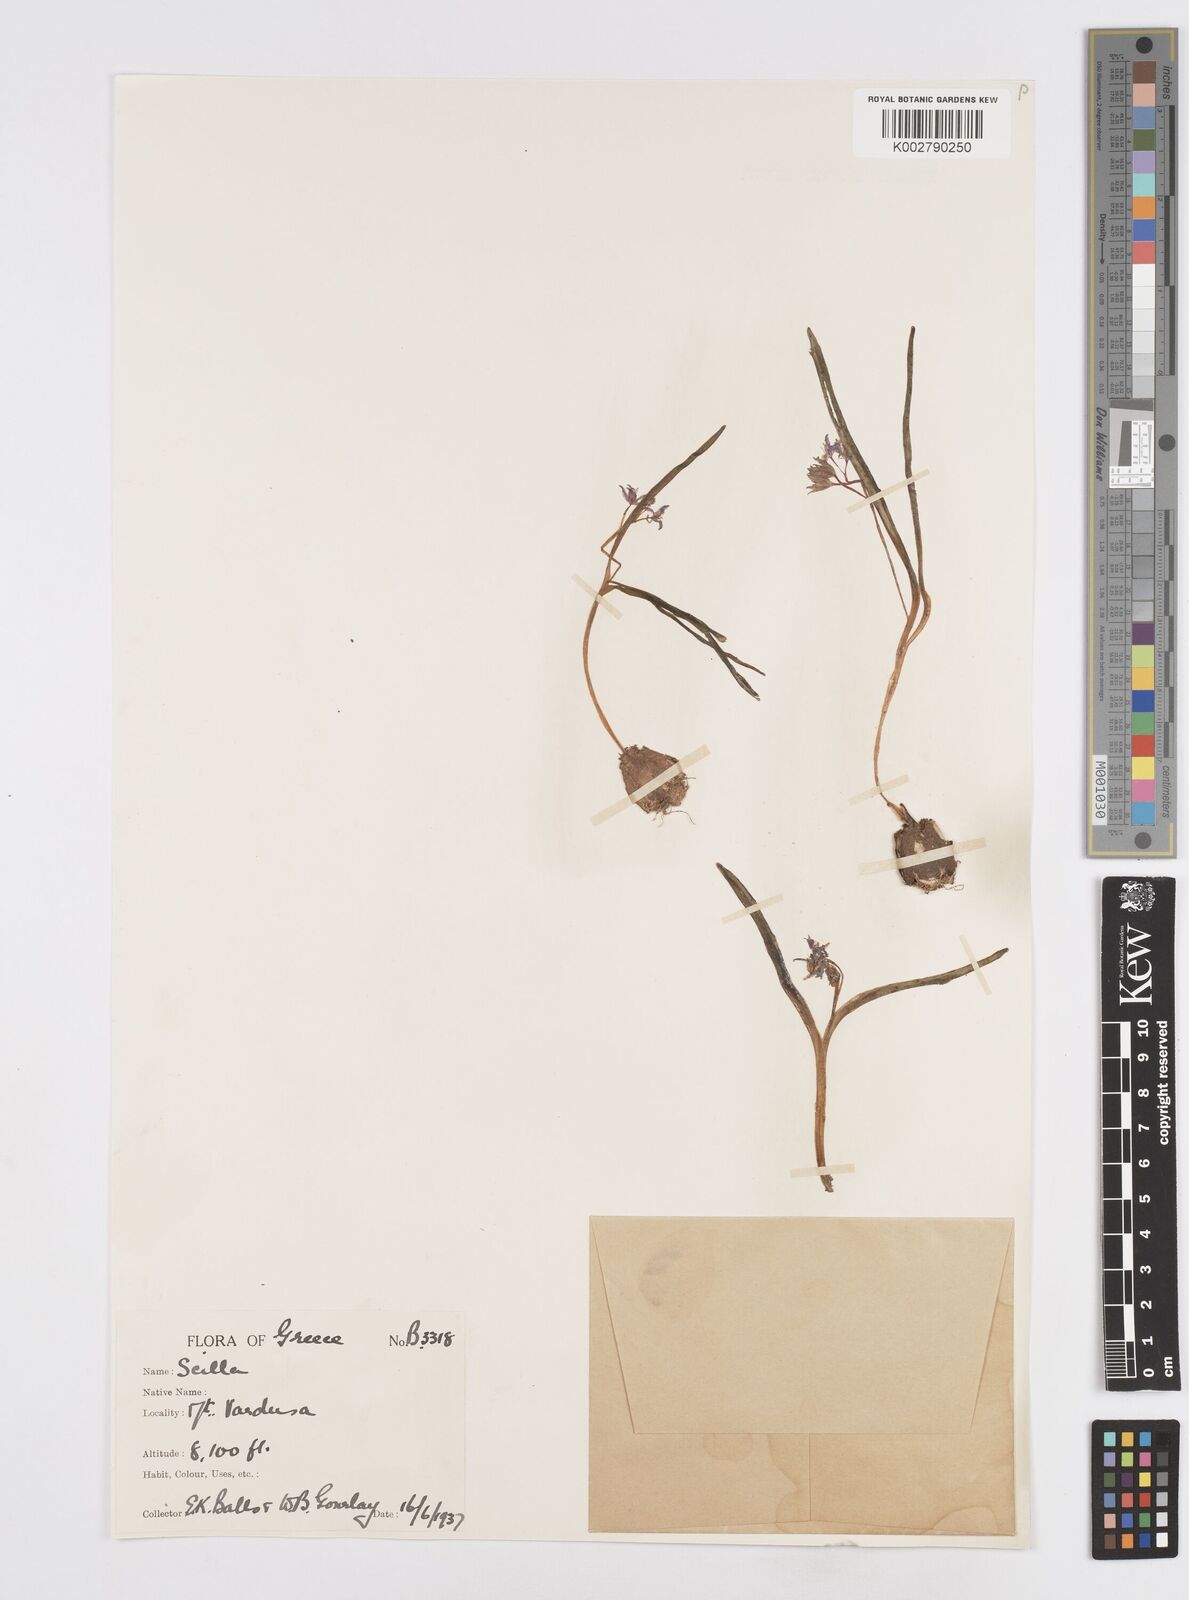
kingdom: Plantae
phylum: Tracheophyta
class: Liliopsida
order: Asparagales
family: Asparagaceae
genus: Scilla
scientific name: Scilla bifolia
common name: Alpine squill
